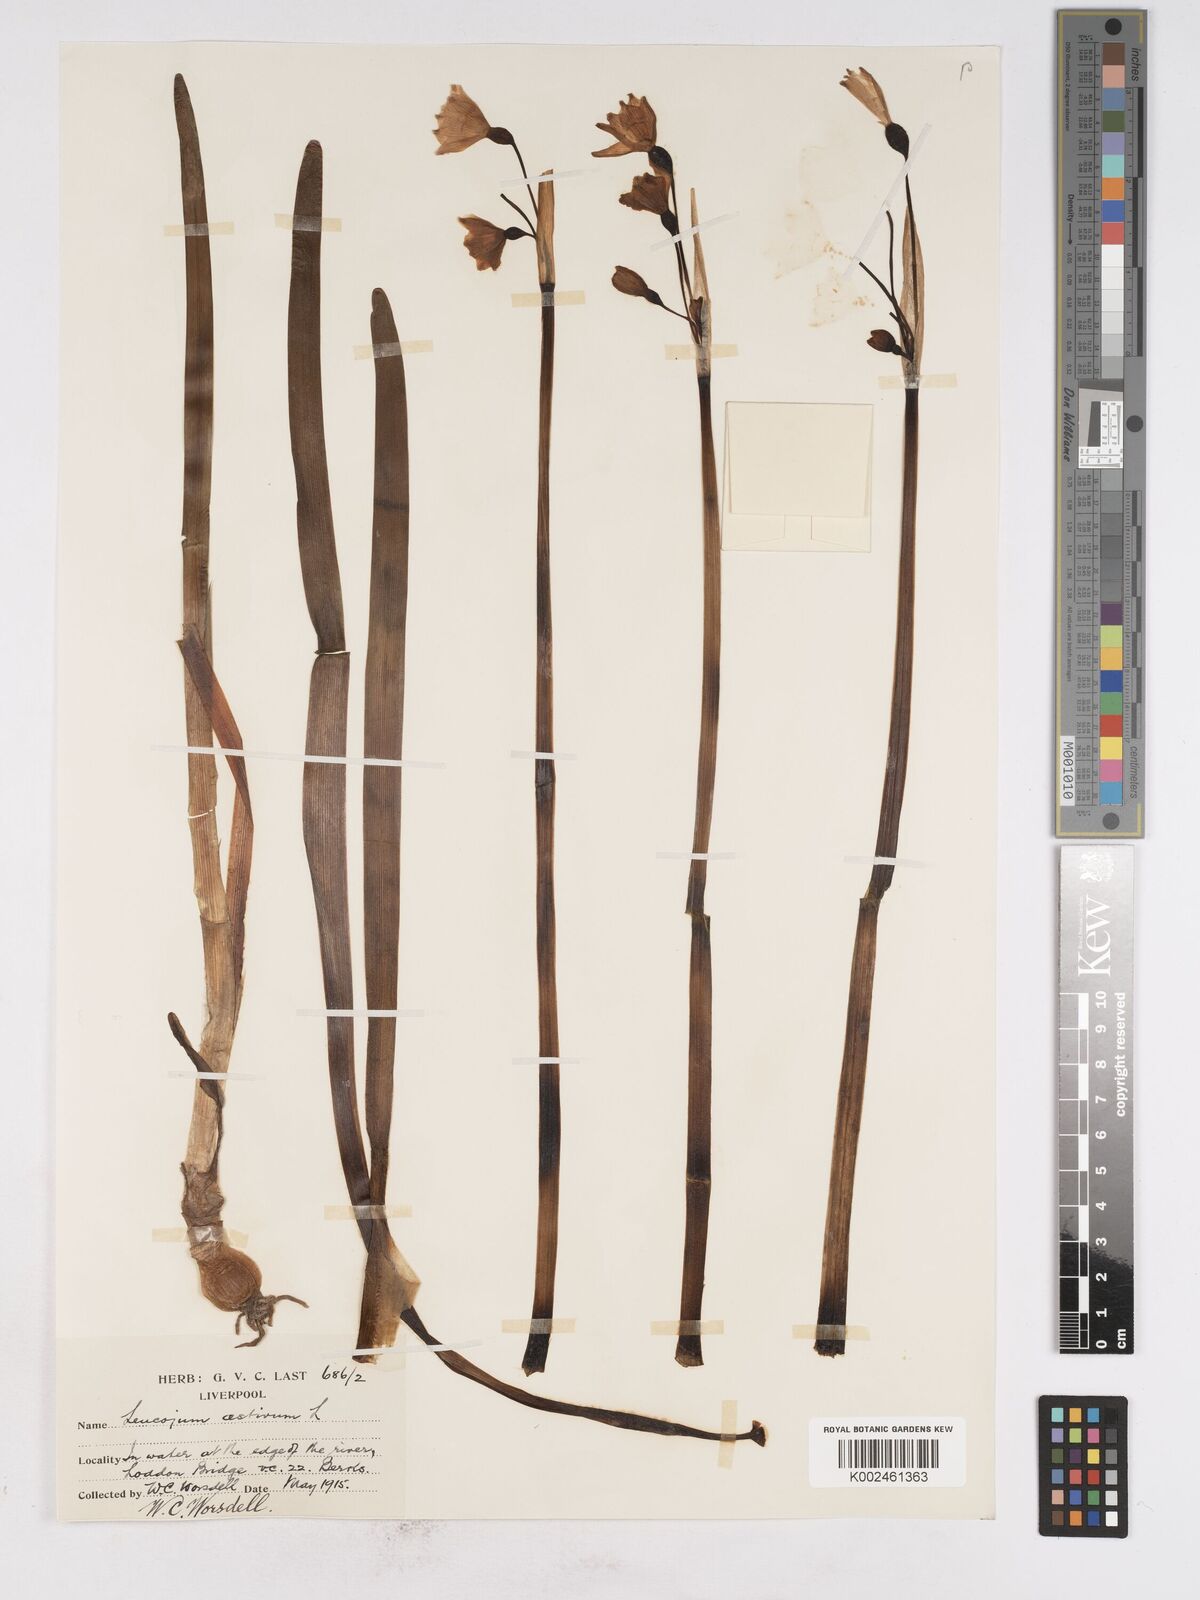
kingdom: Plantae
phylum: Tracheophyta
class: Liliopsida
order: Asparagales
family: Amaryllidaceae
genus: Leucojum
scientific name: Leucojum aestivum
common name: Summer snowflake
